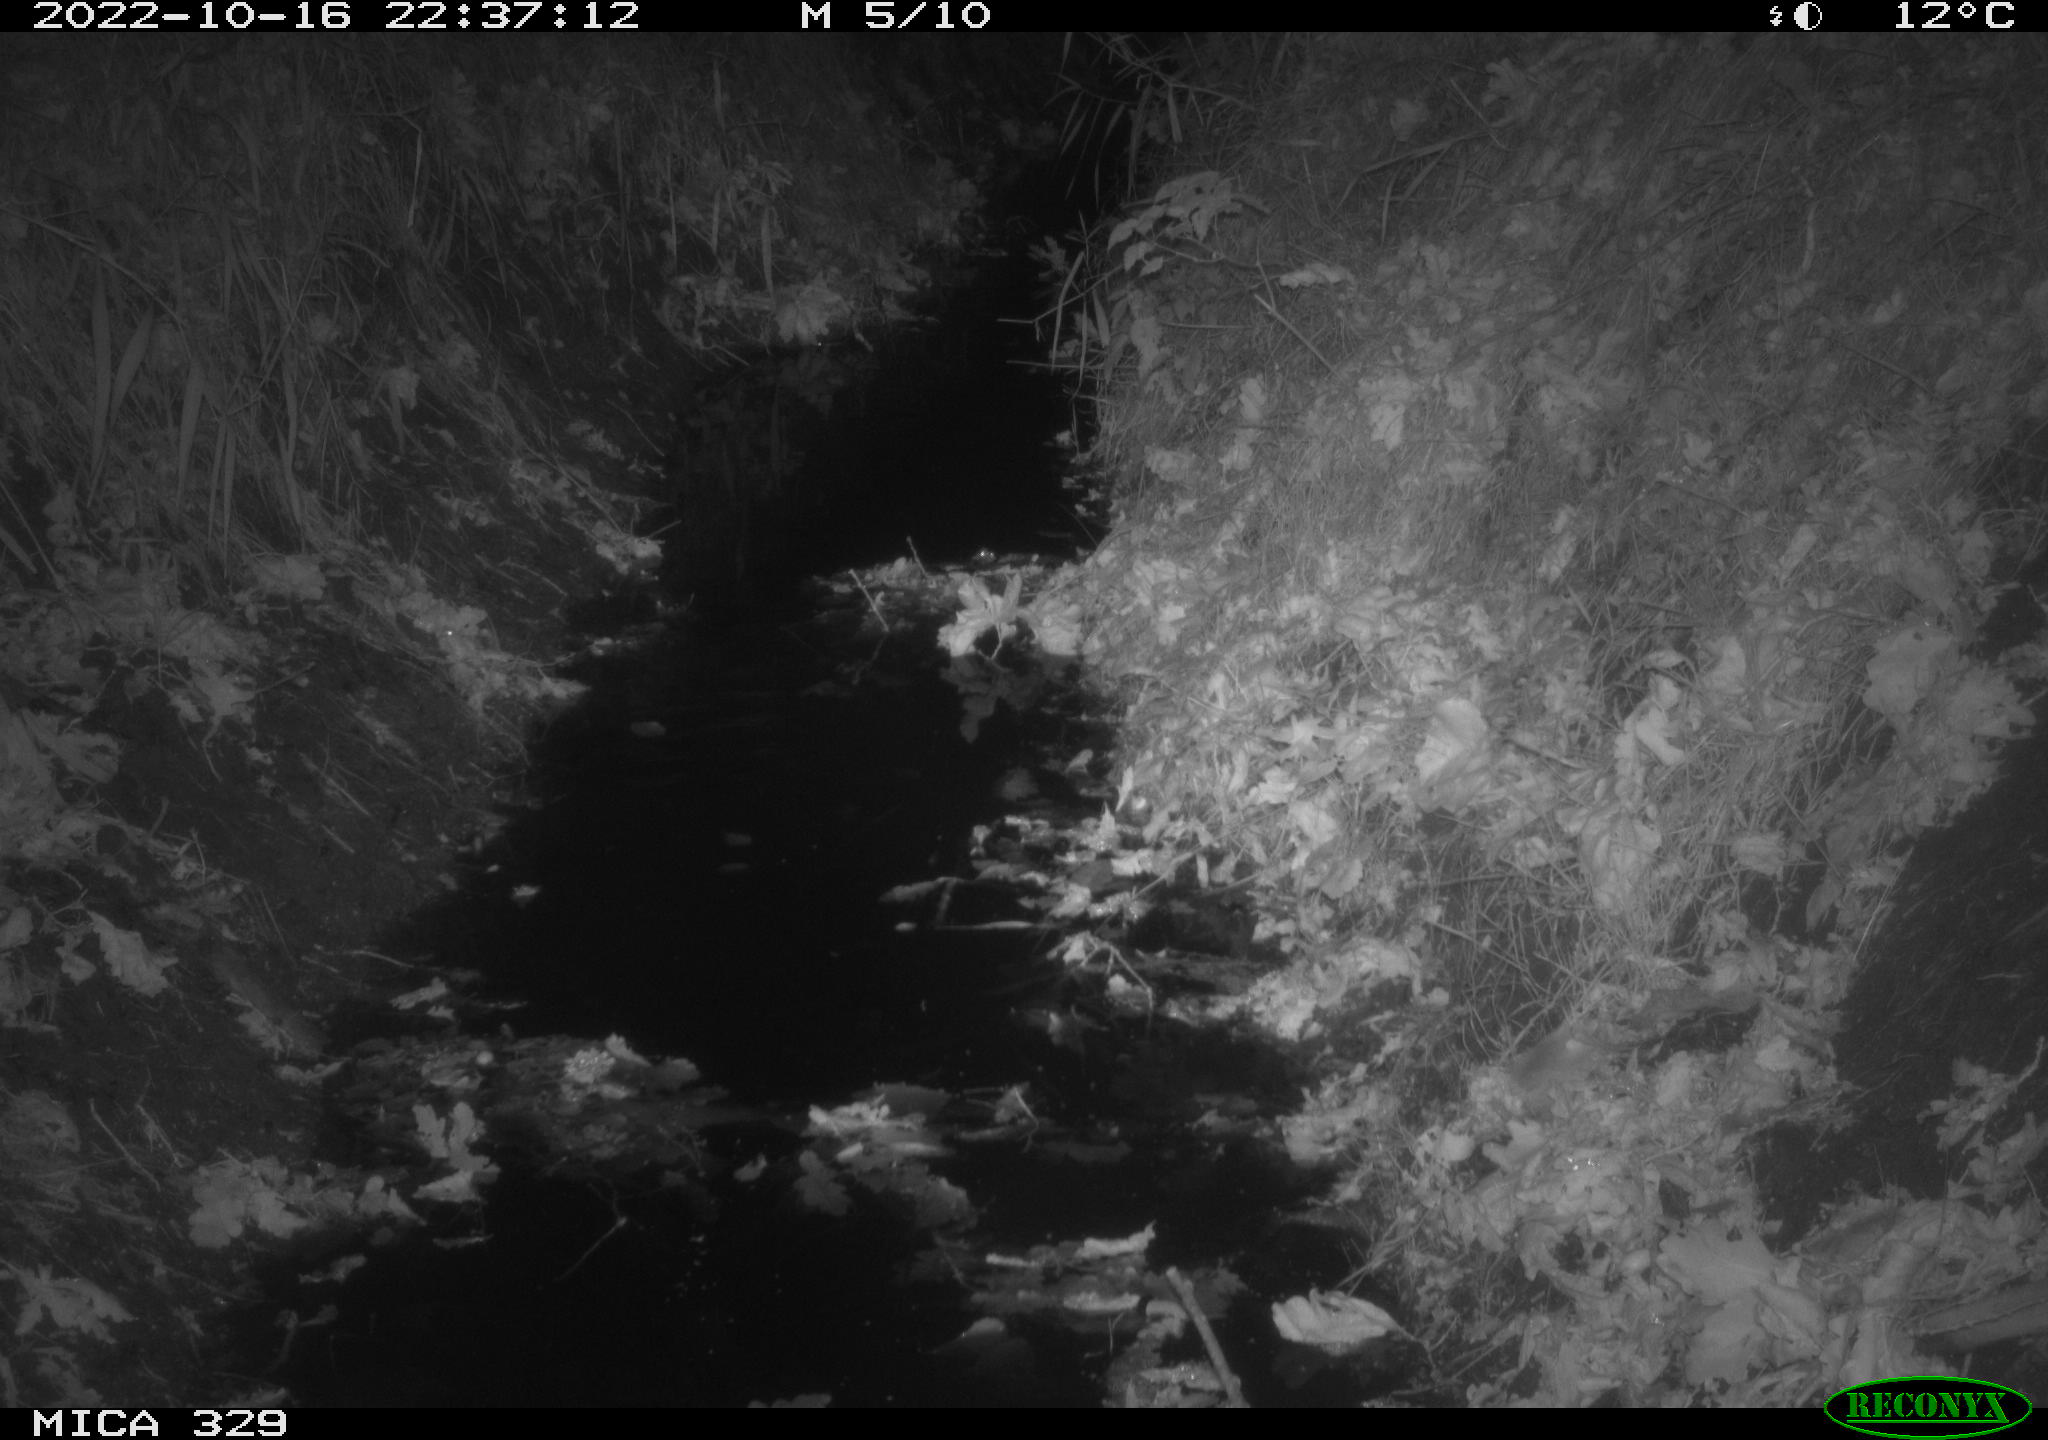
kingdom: Animalia
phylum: Chordata
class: Mammalia
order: Rodentia
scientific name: Rodentia
